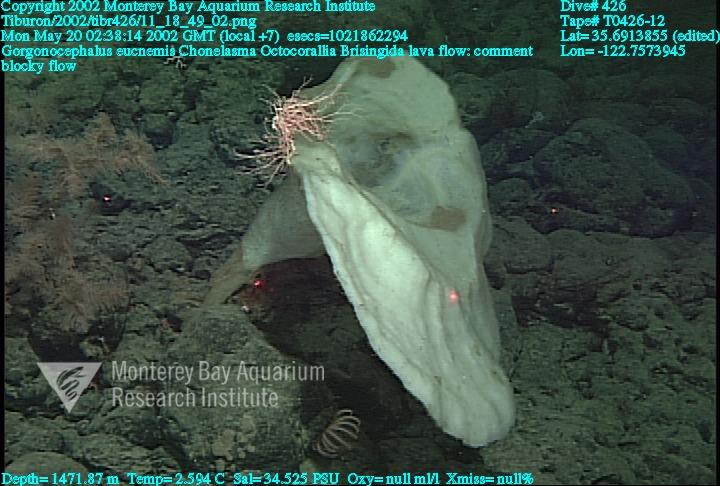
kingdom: Animalia
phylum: Porifera
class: Hexactinellida
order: Sceptrulophora
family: Euretidae
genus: Chonelasma
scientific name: Chonelasma
